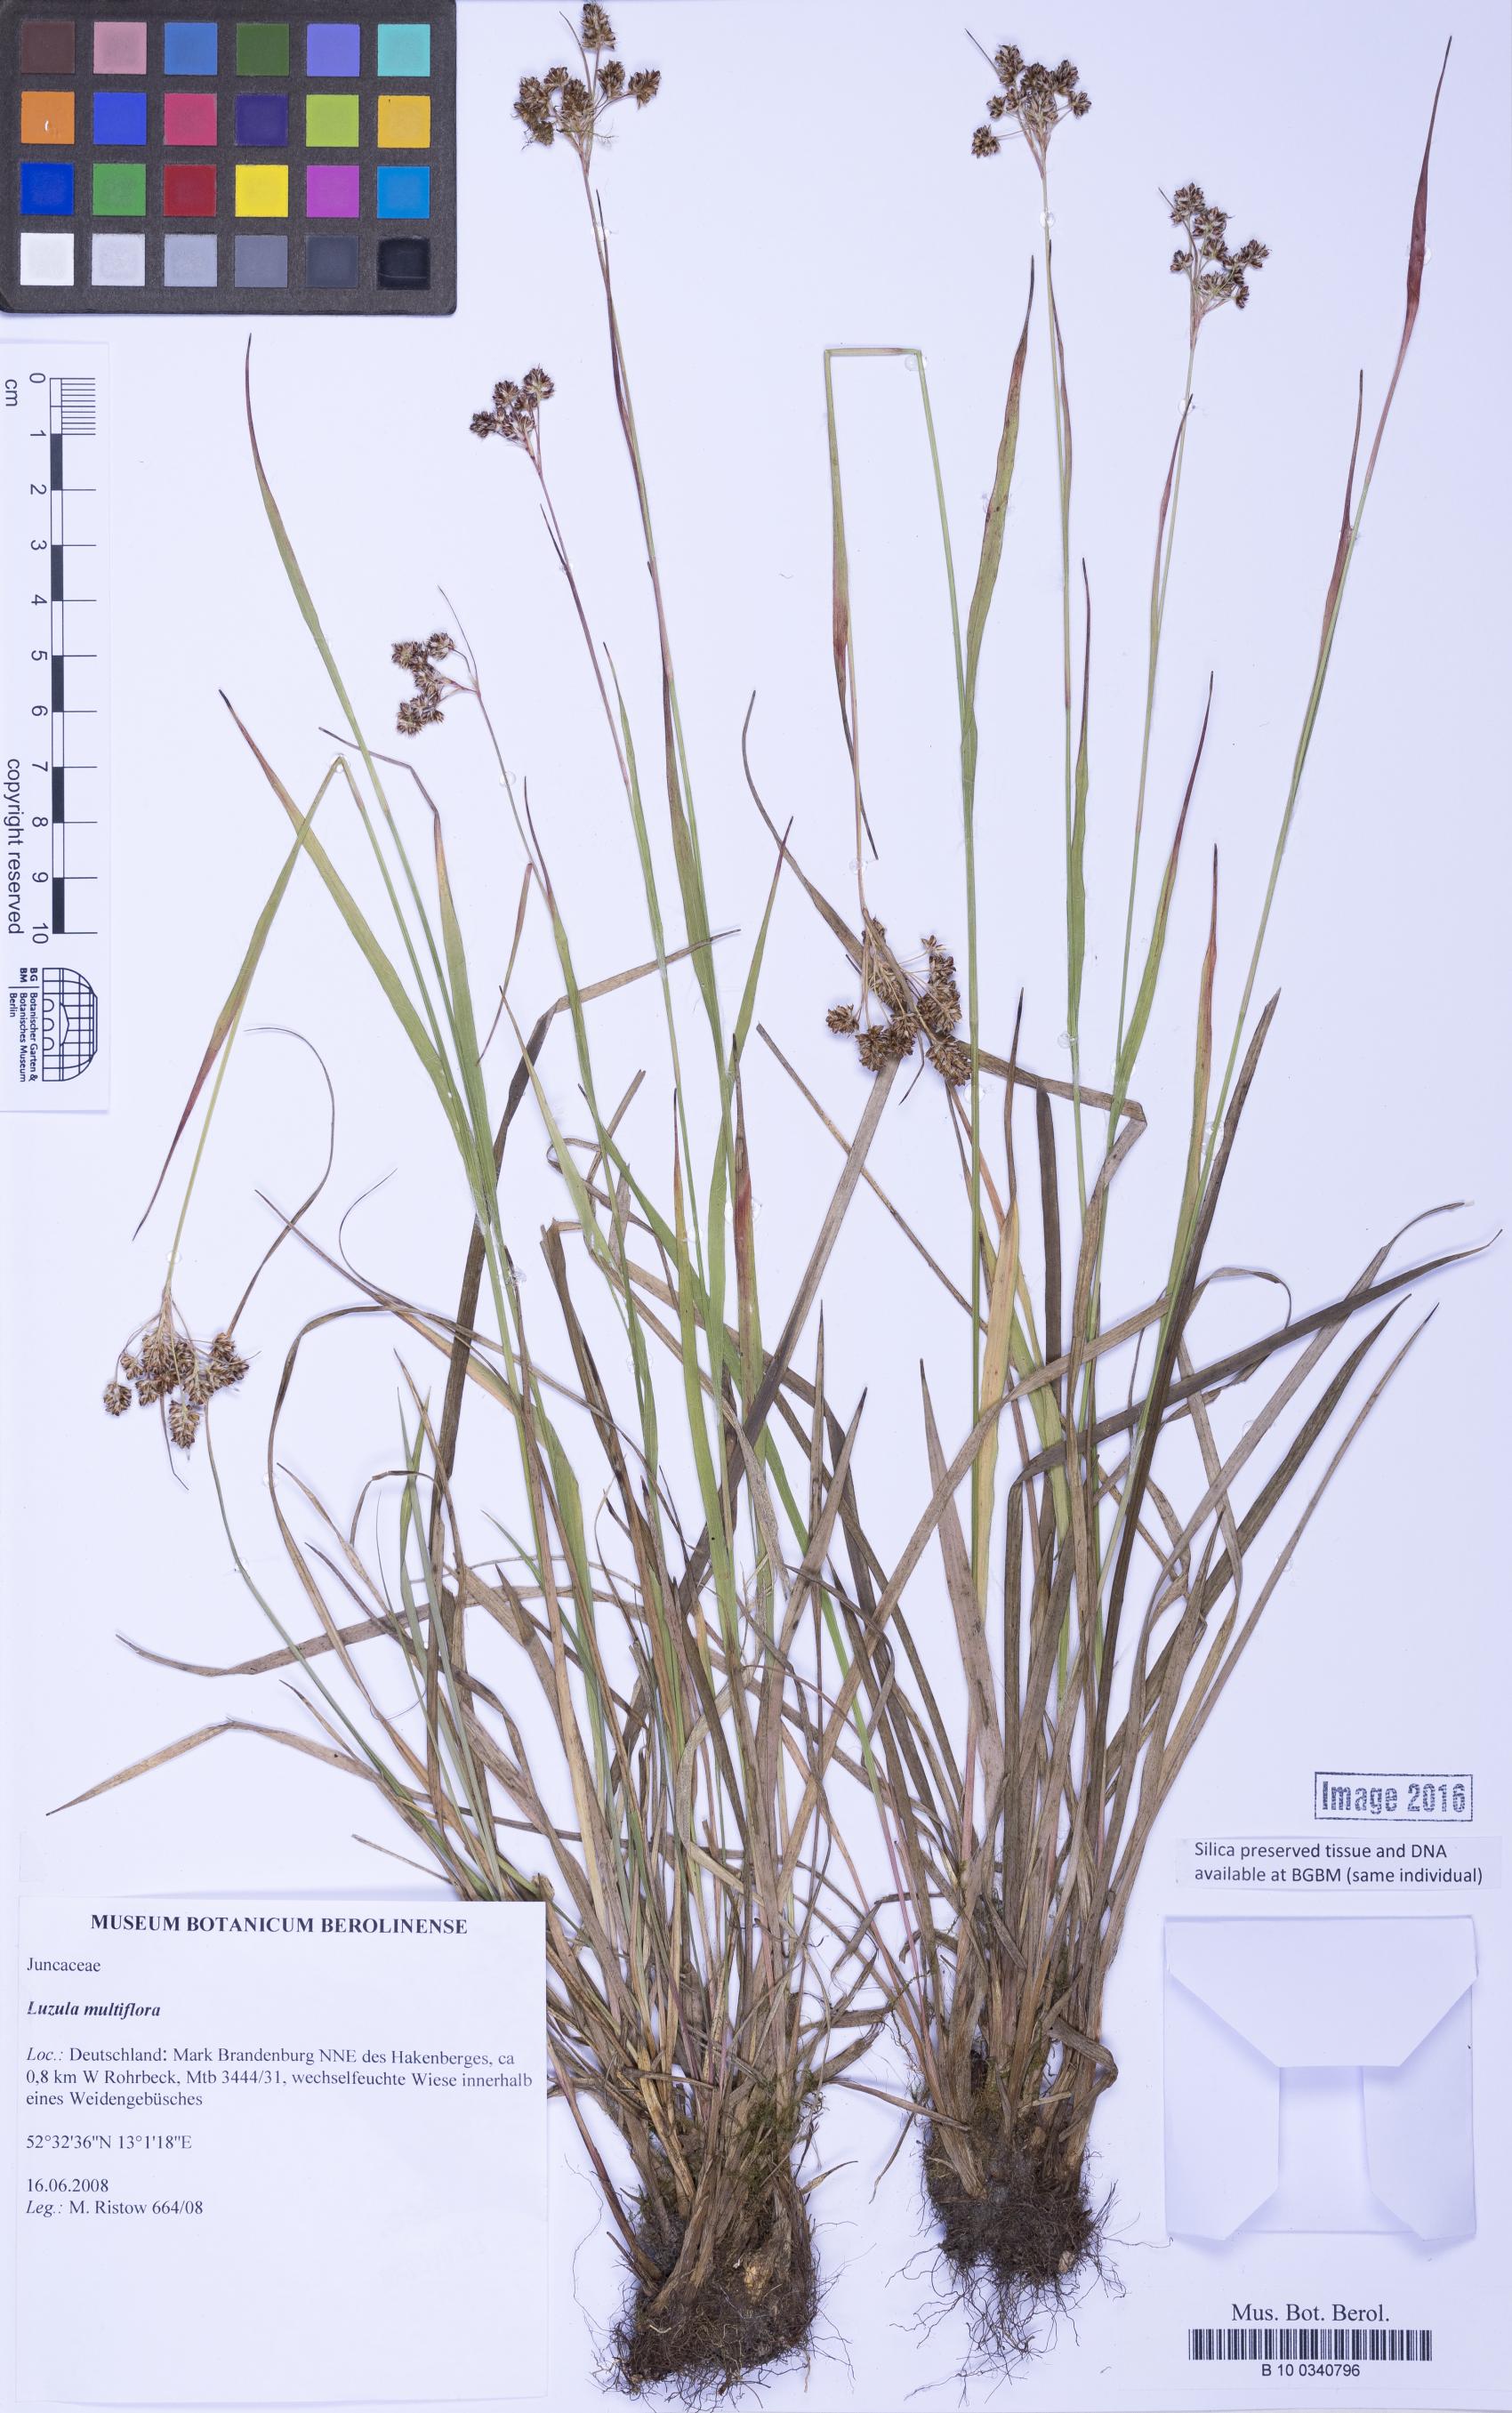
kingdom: Plantae
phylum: Tracheophyta
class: Liliopsida
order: Poales
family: Juncaceae
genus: Luzula
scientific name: Luzula multiflora
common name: Heath wood-rush
